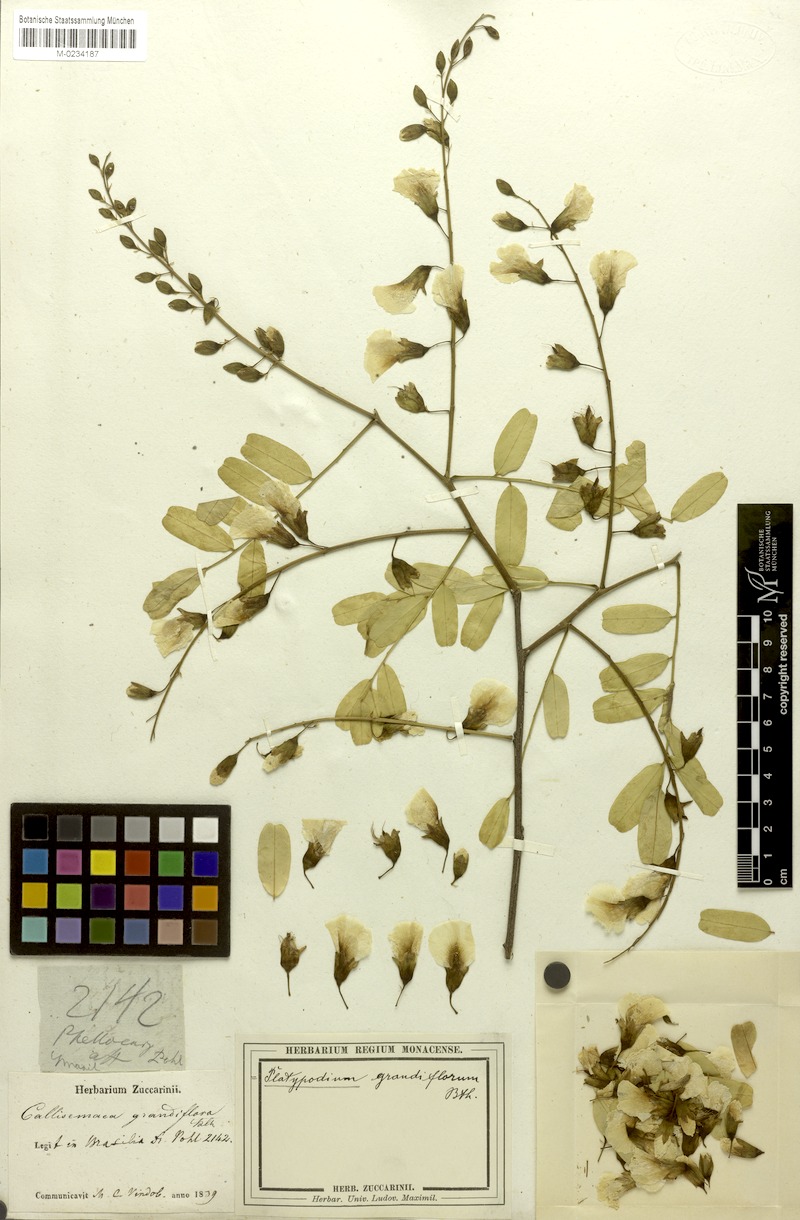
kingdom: Plantae
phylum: Tracheophyta
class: Magnoliopsida
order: Fabales
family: Fabaceae
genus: Platypodium
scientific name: Platypodium elegans
